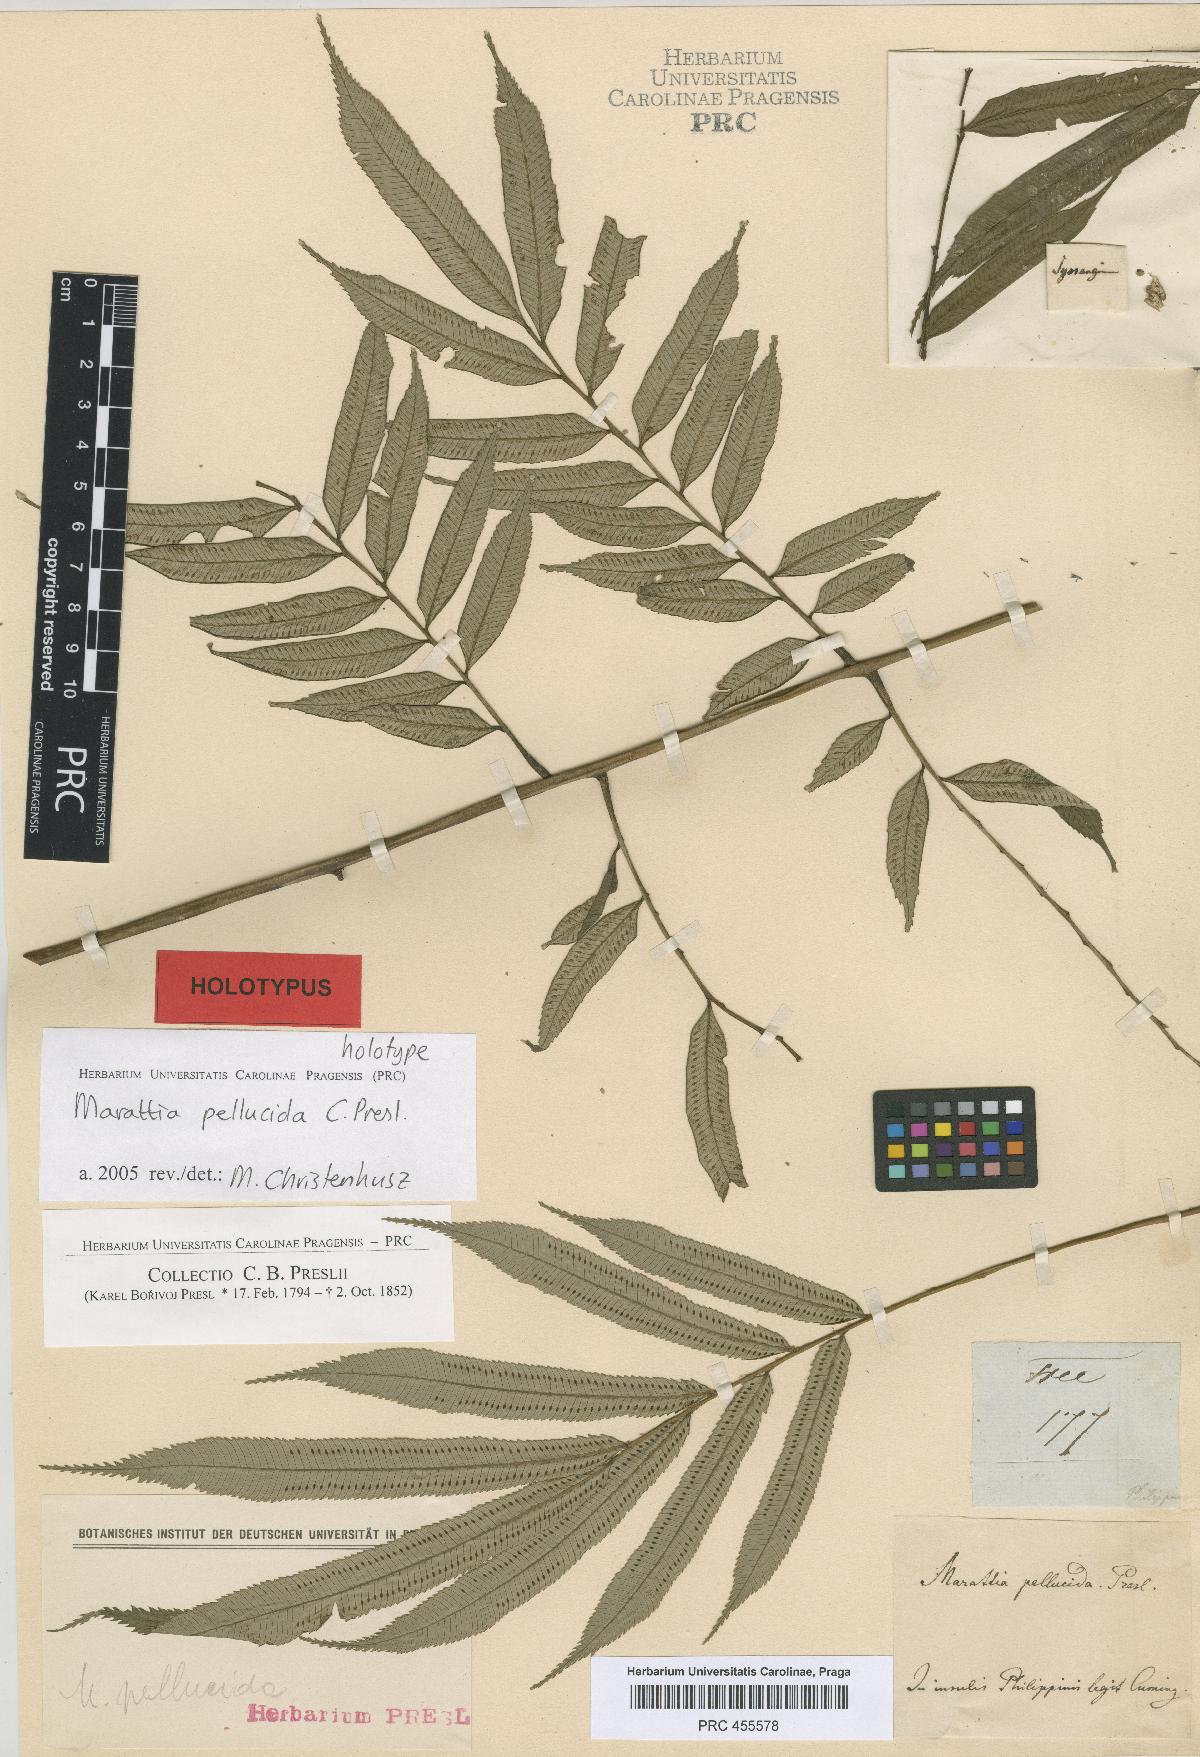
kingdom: Plantae
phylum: Tracheophyta
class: Polypodiopsida
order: Marattiales
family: Marattiaceae
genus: Ptisana
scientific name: Ptisana pellucida
